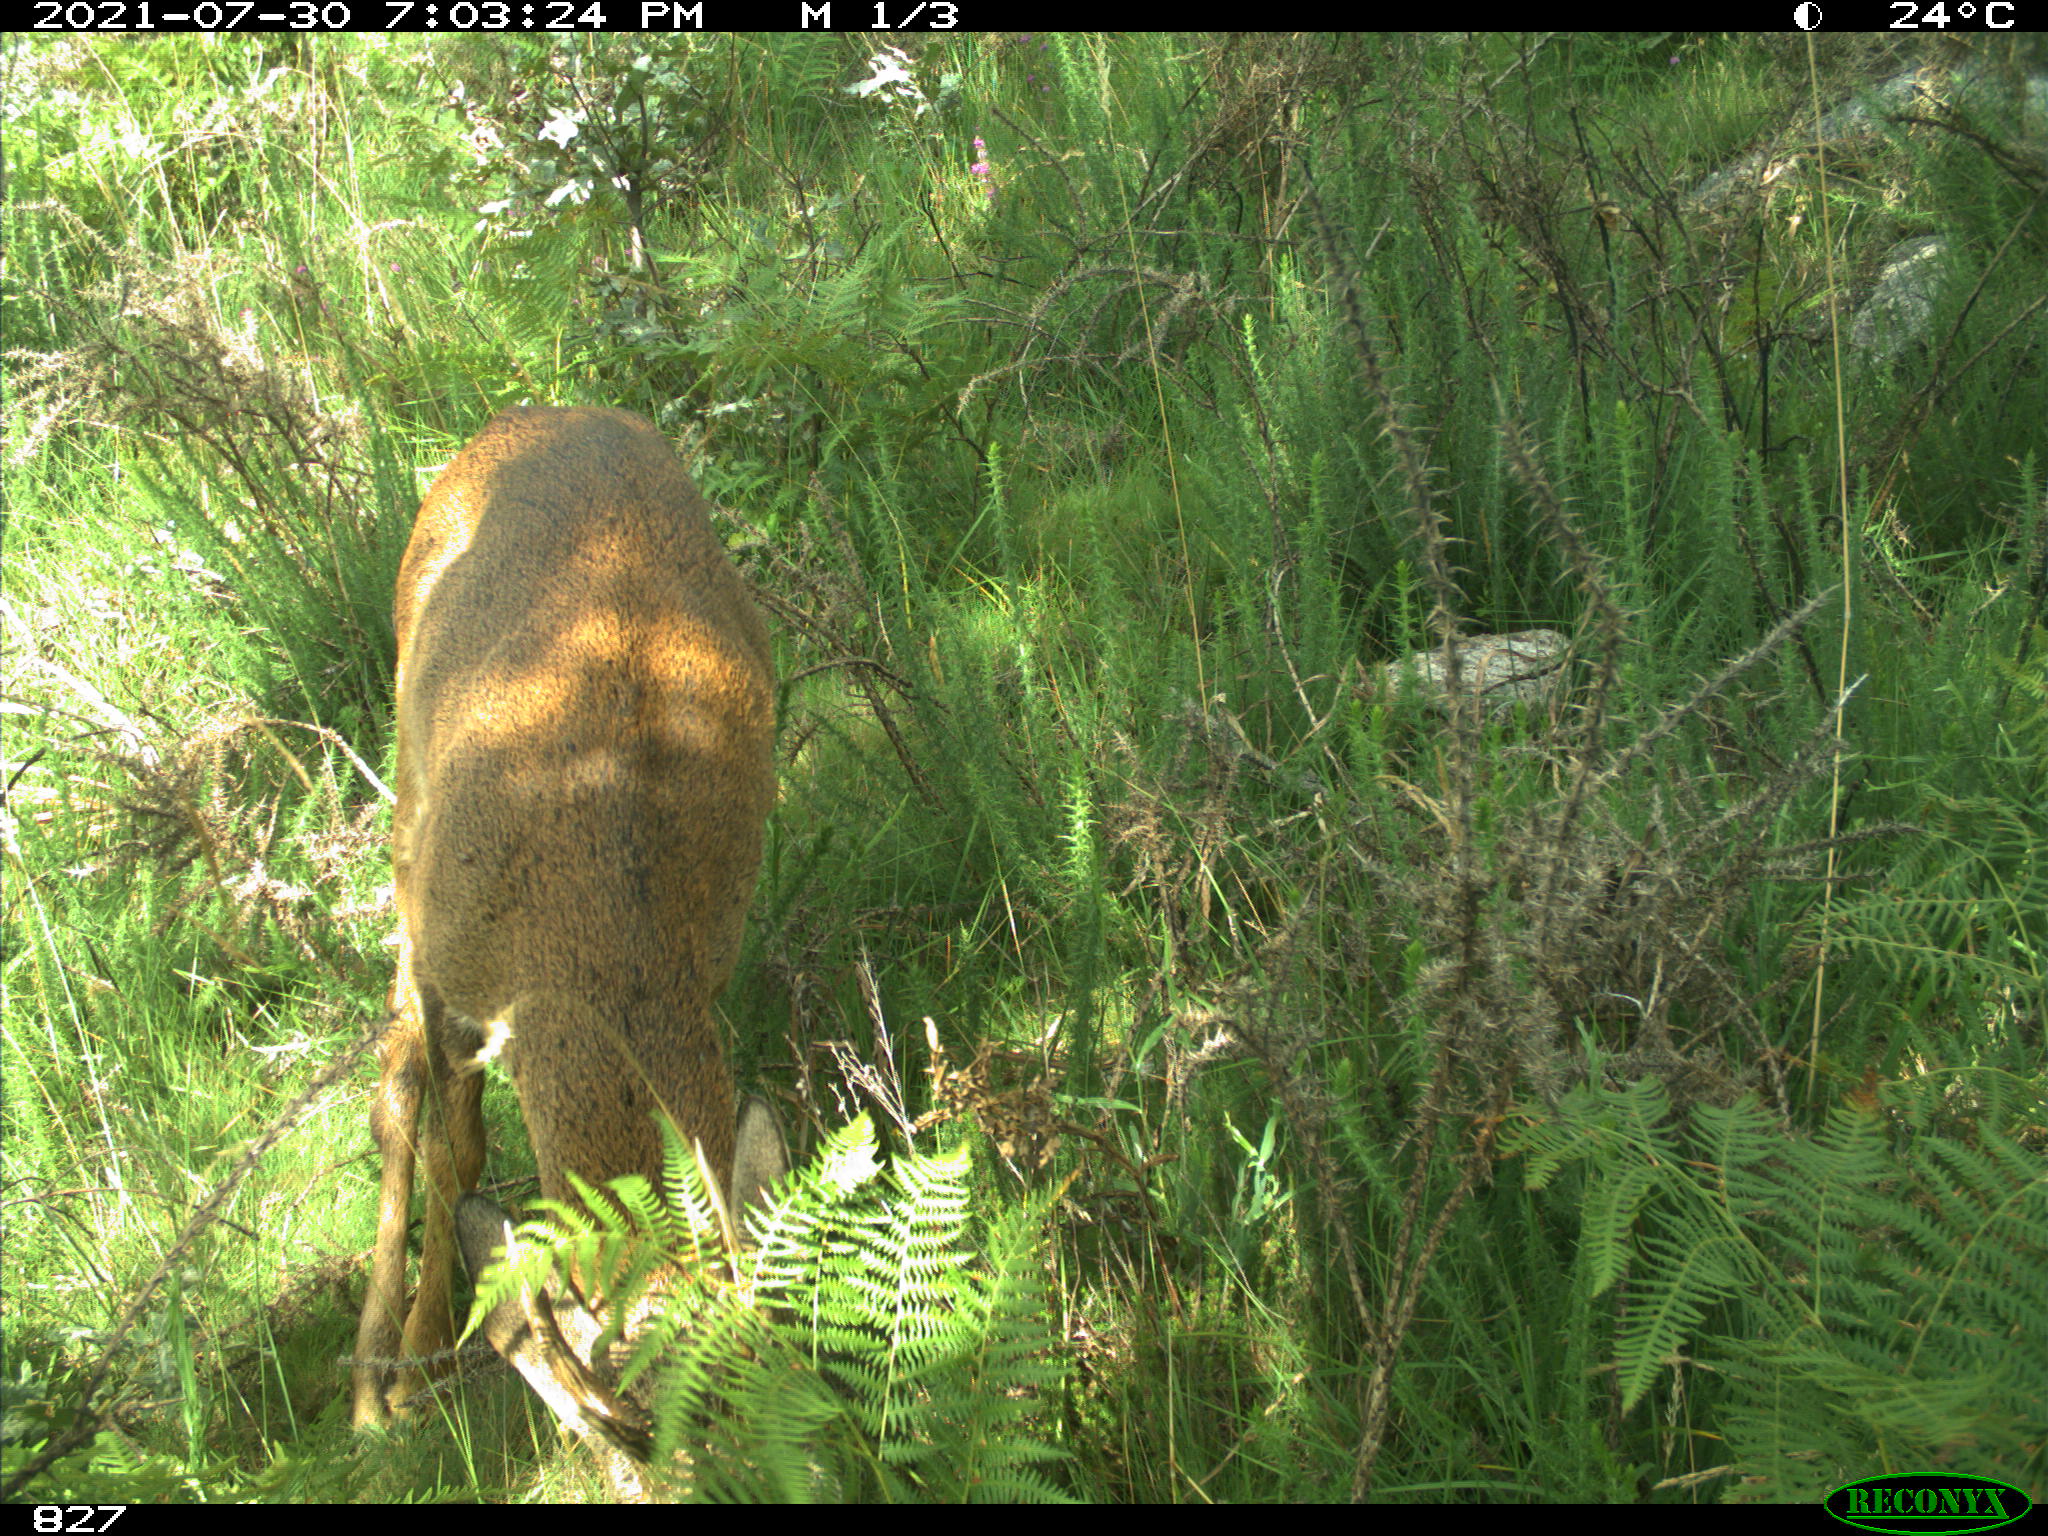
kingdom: Animalia
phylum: Chordata
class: Mammalia
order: Artiodactyla
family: Cervidae
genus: Capreolus
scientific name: Capreolus capreolus
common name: Western roe deer
